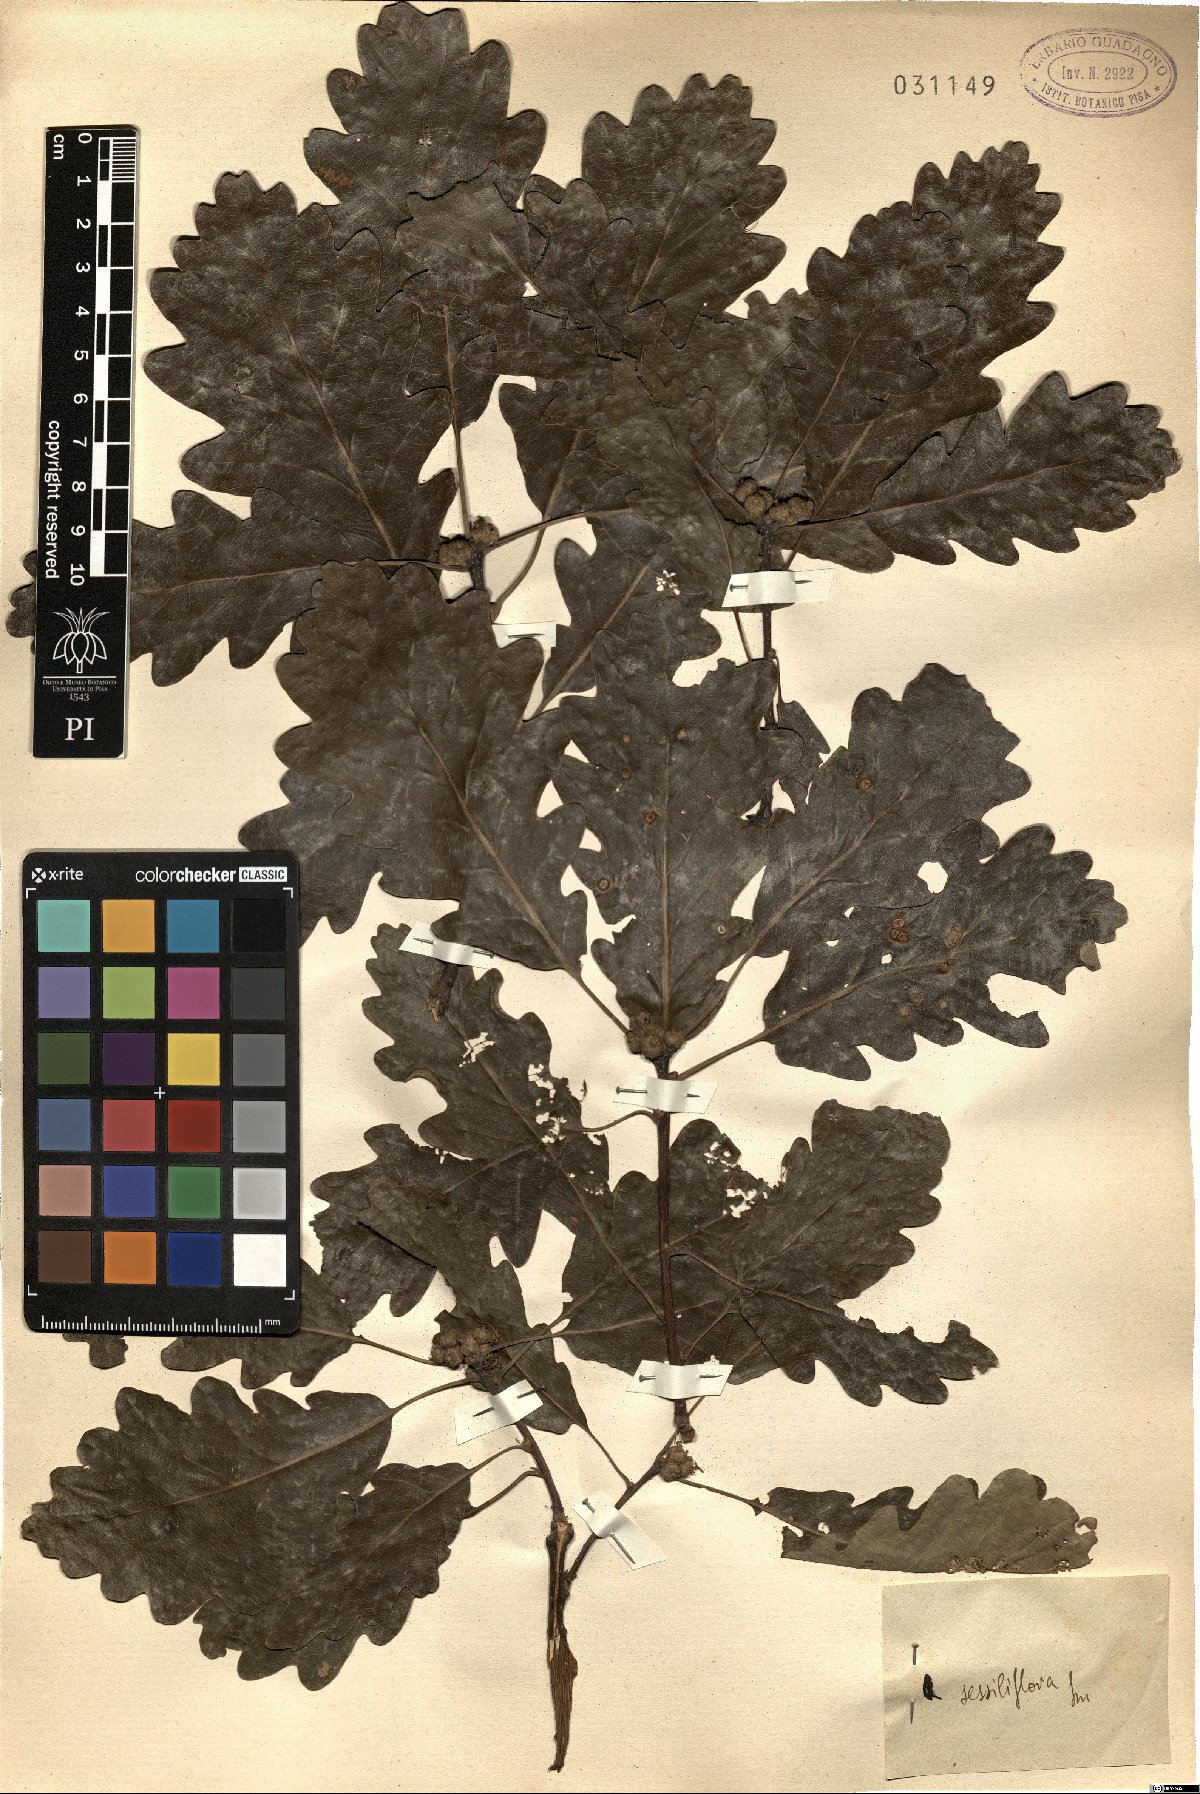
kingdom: Plantae
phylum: Tracheophyta
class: Magnoliopsida
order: Fagales
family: Fagaceae
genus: Quercus
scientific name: Quercus petraea
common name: Sessile oak
